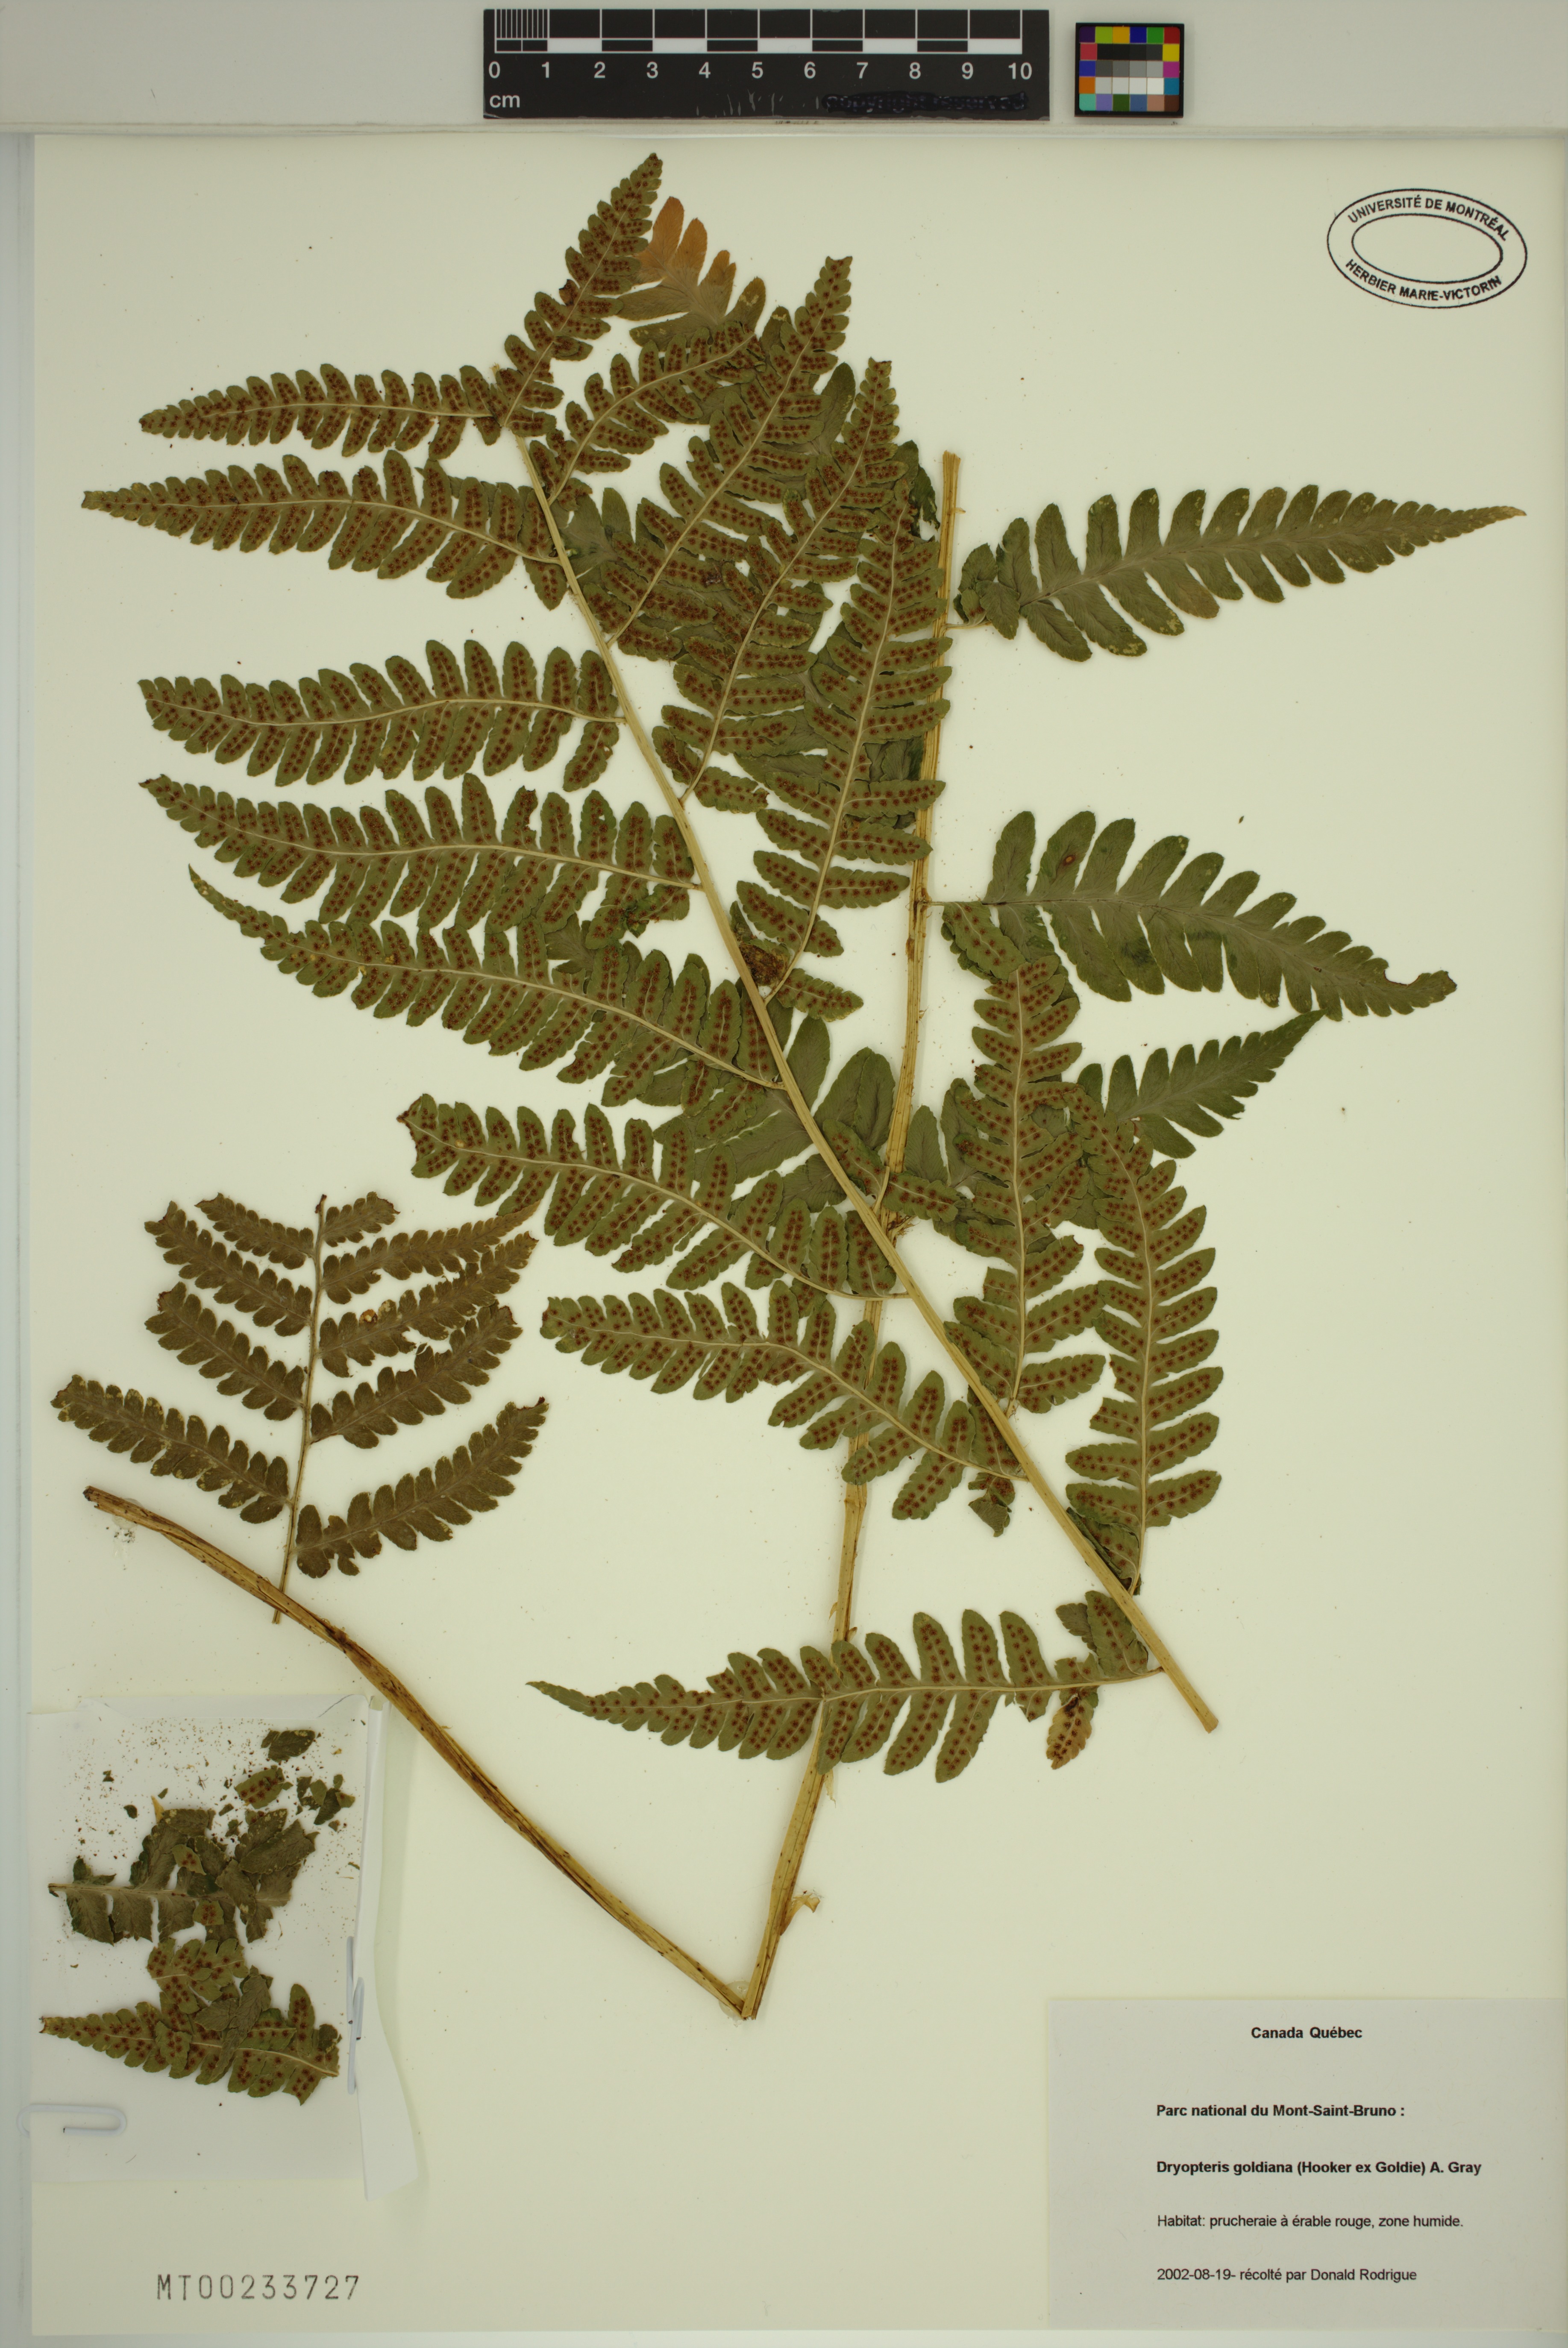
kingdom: Plantae
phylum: Tracheophyta
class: Polypodiopsida
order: Polypodiales
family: Dryopteridaceae
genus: Dryopteris
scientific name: Dryopteris goldieana
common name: Goldie's fern
